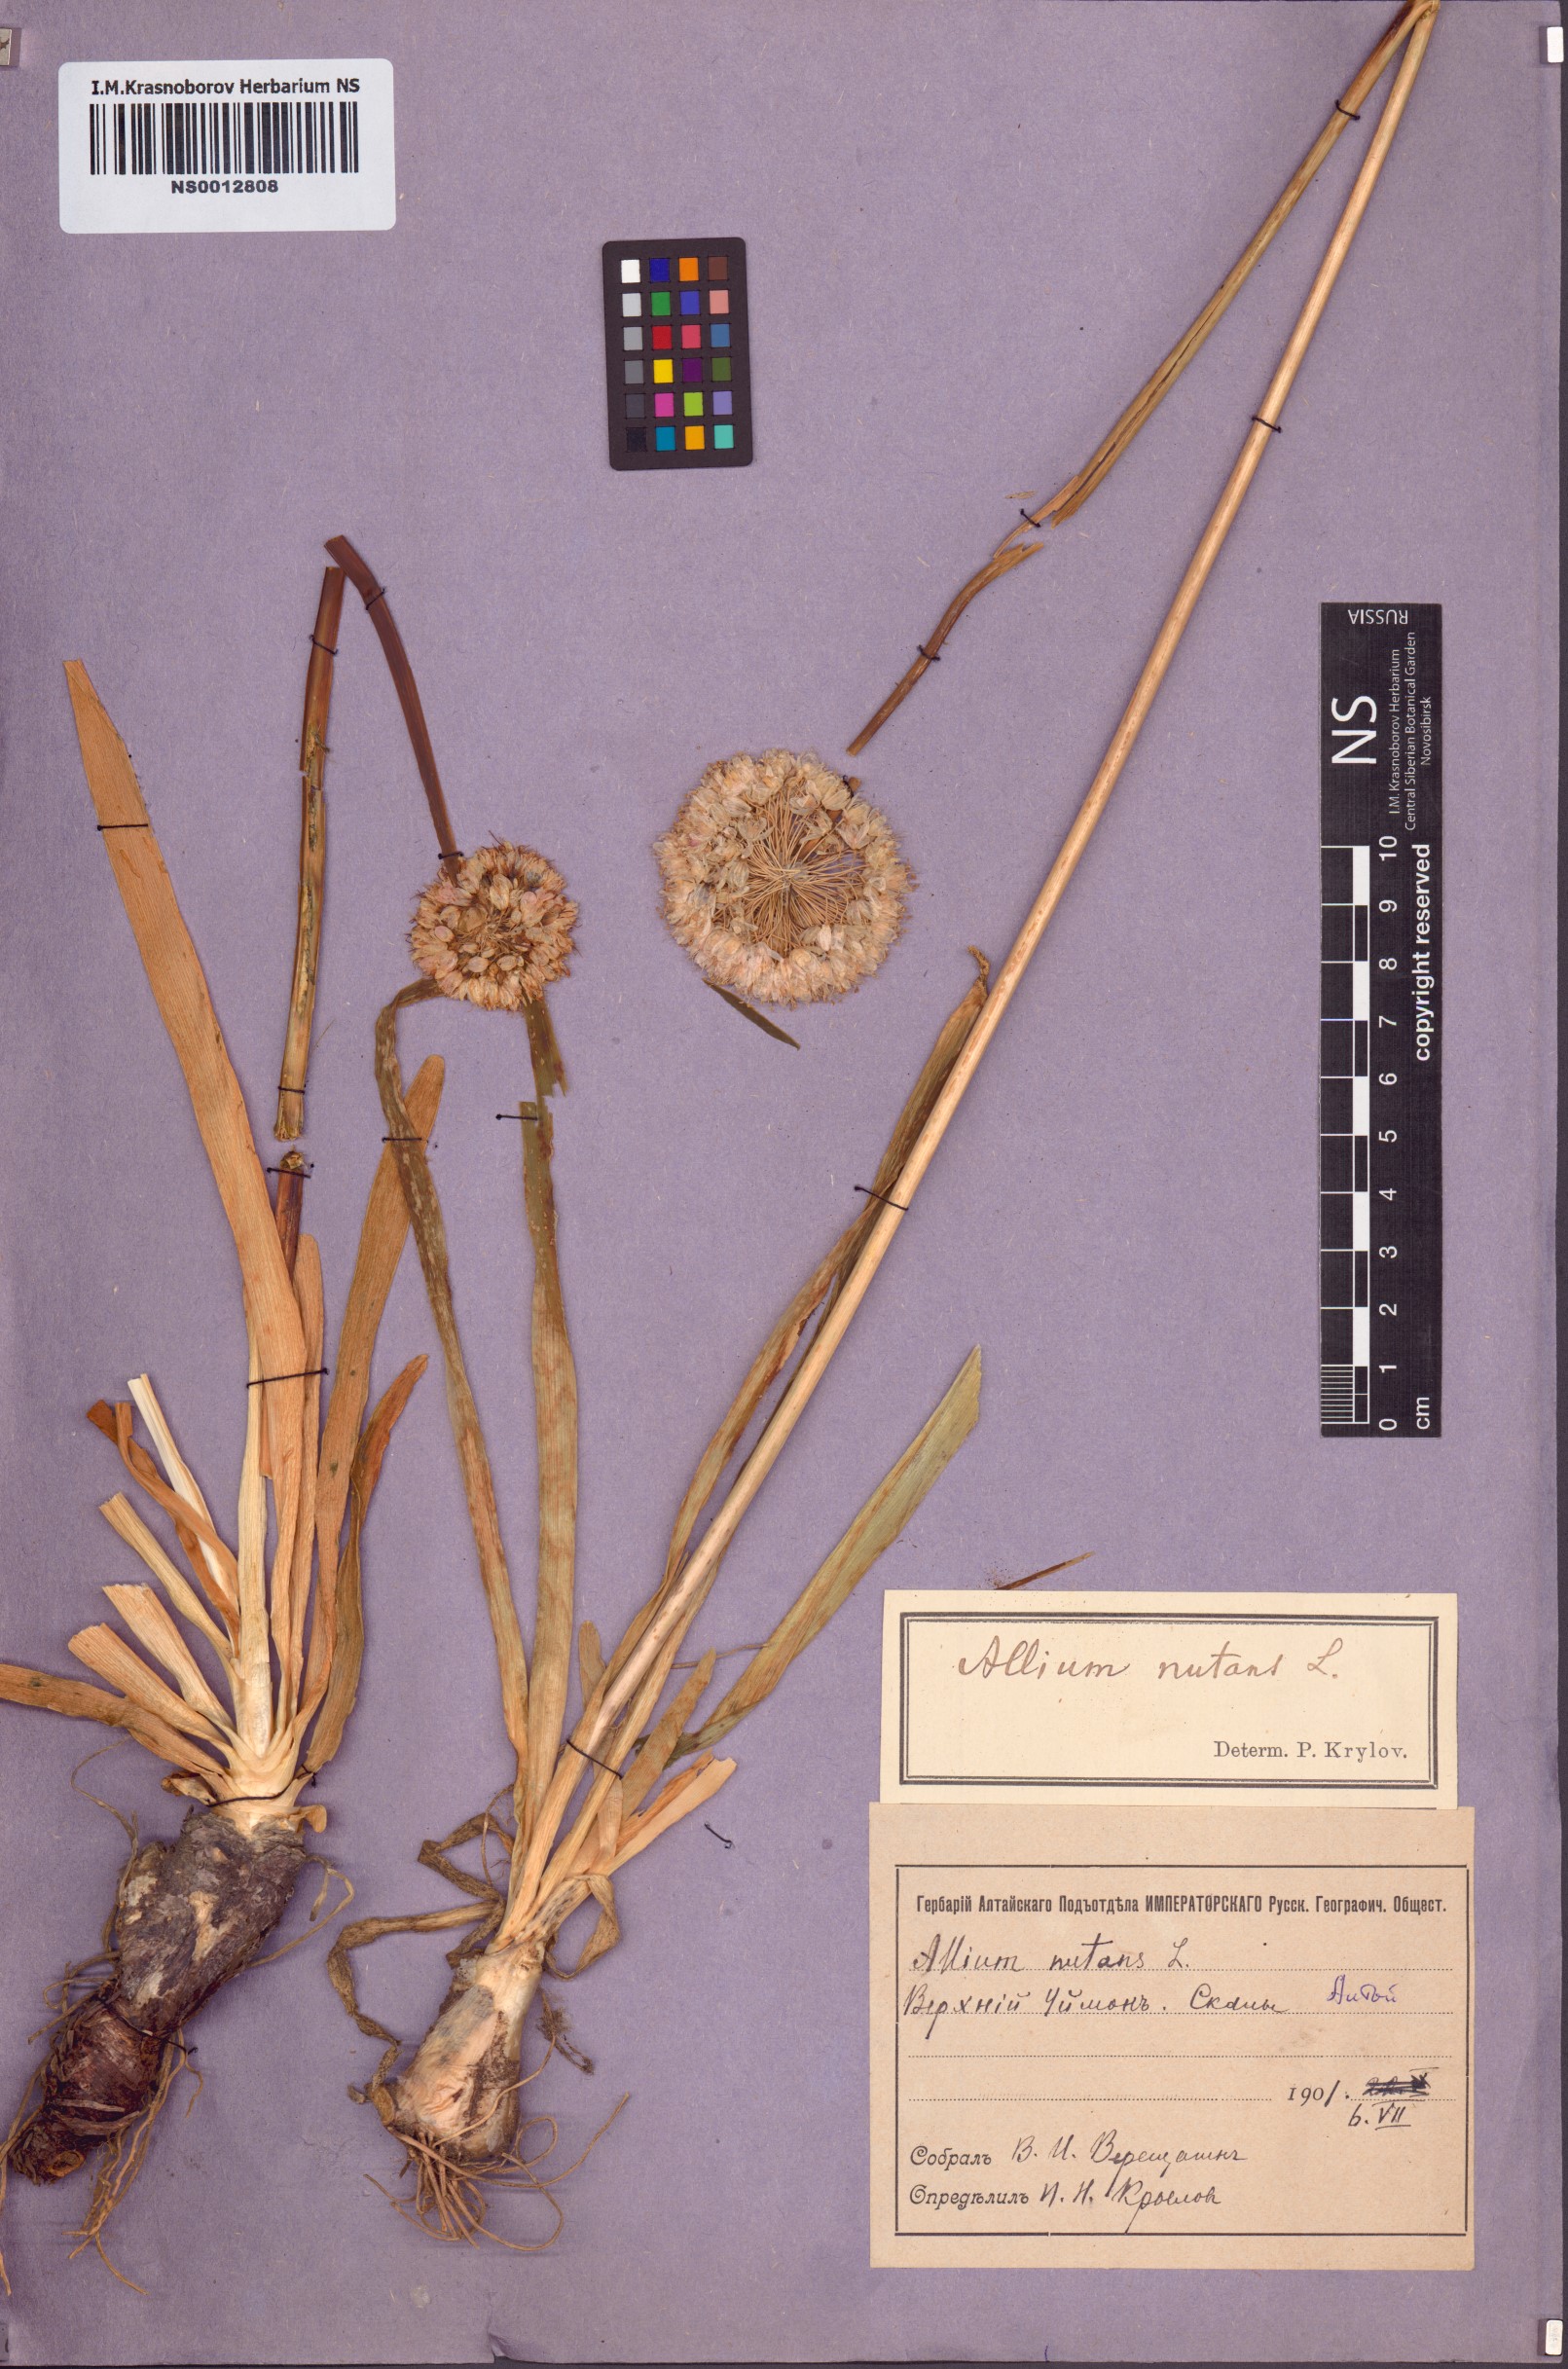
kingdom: Plantae
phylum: Tracheophyta
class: Liliopsida
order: Asparagales
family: Amaryllidaceae
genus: Allium
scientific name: Allium nutans
